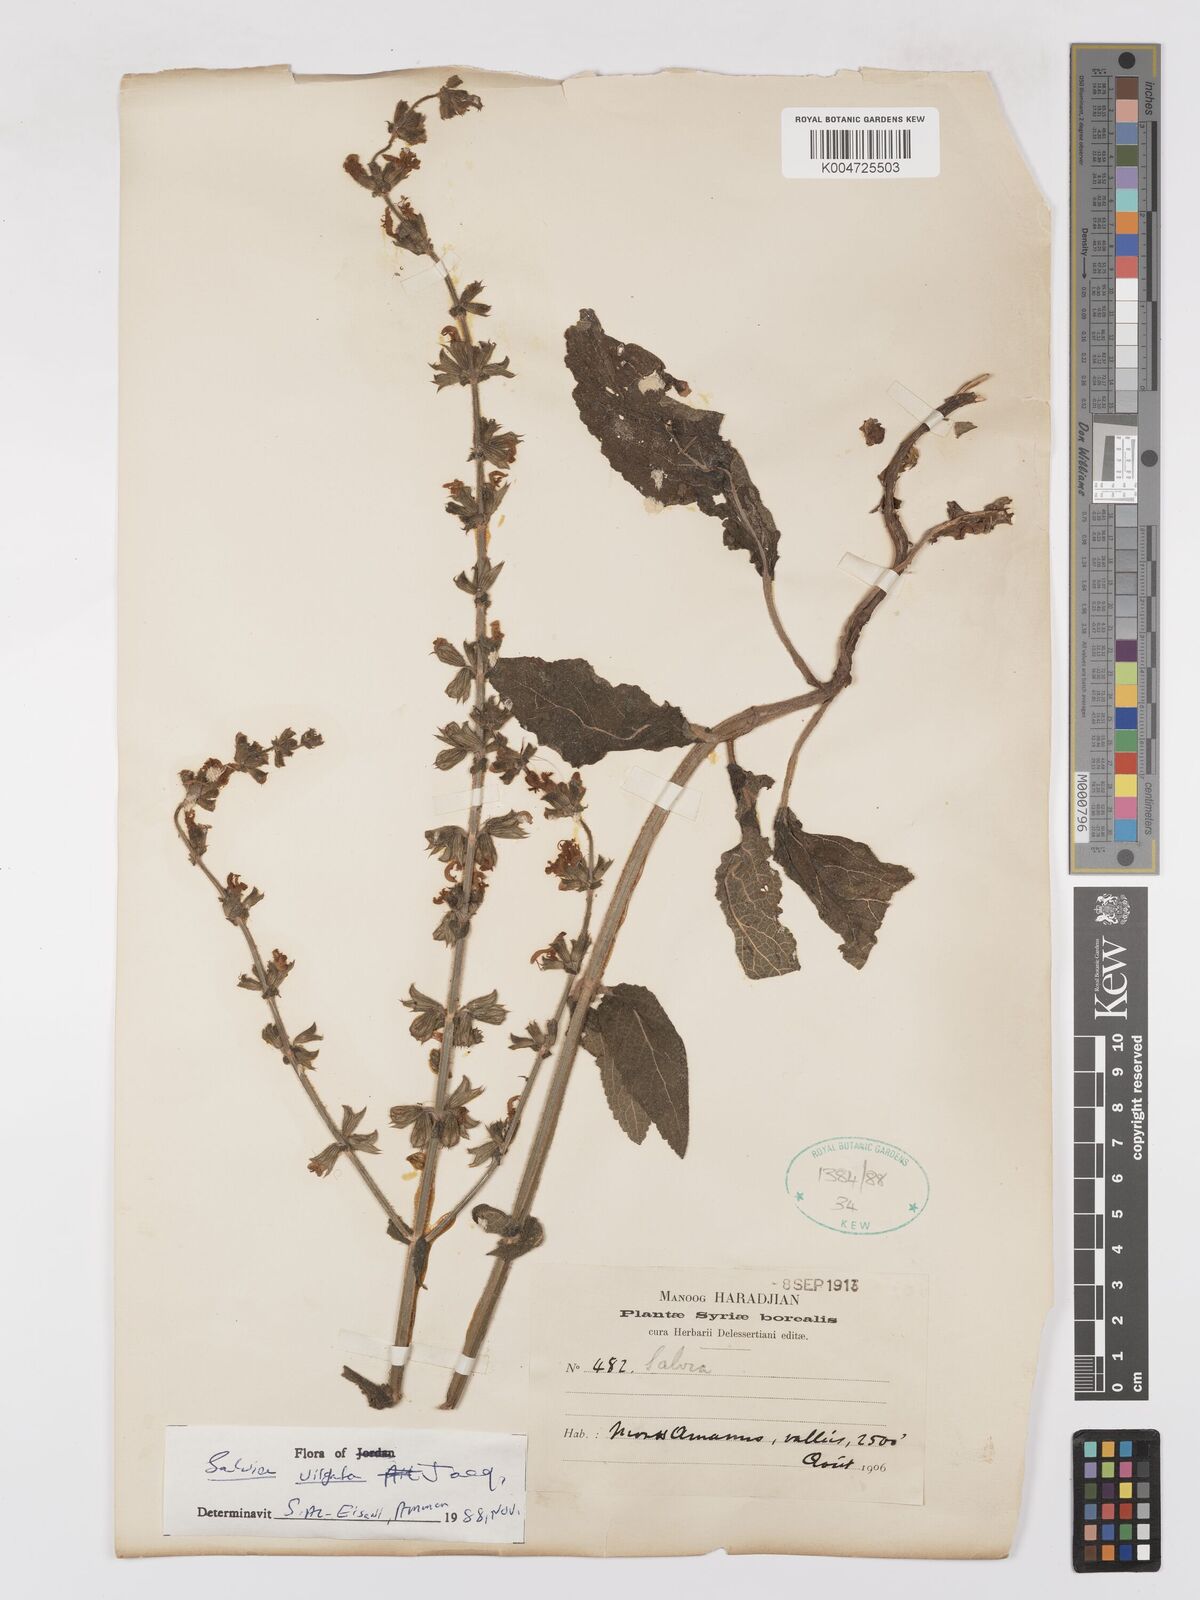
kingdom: Plantae
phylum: Tracheophyta
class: Magnoliopsida
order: Lamiales
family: Lamiaceae
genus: Salvia
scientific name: Salvia
